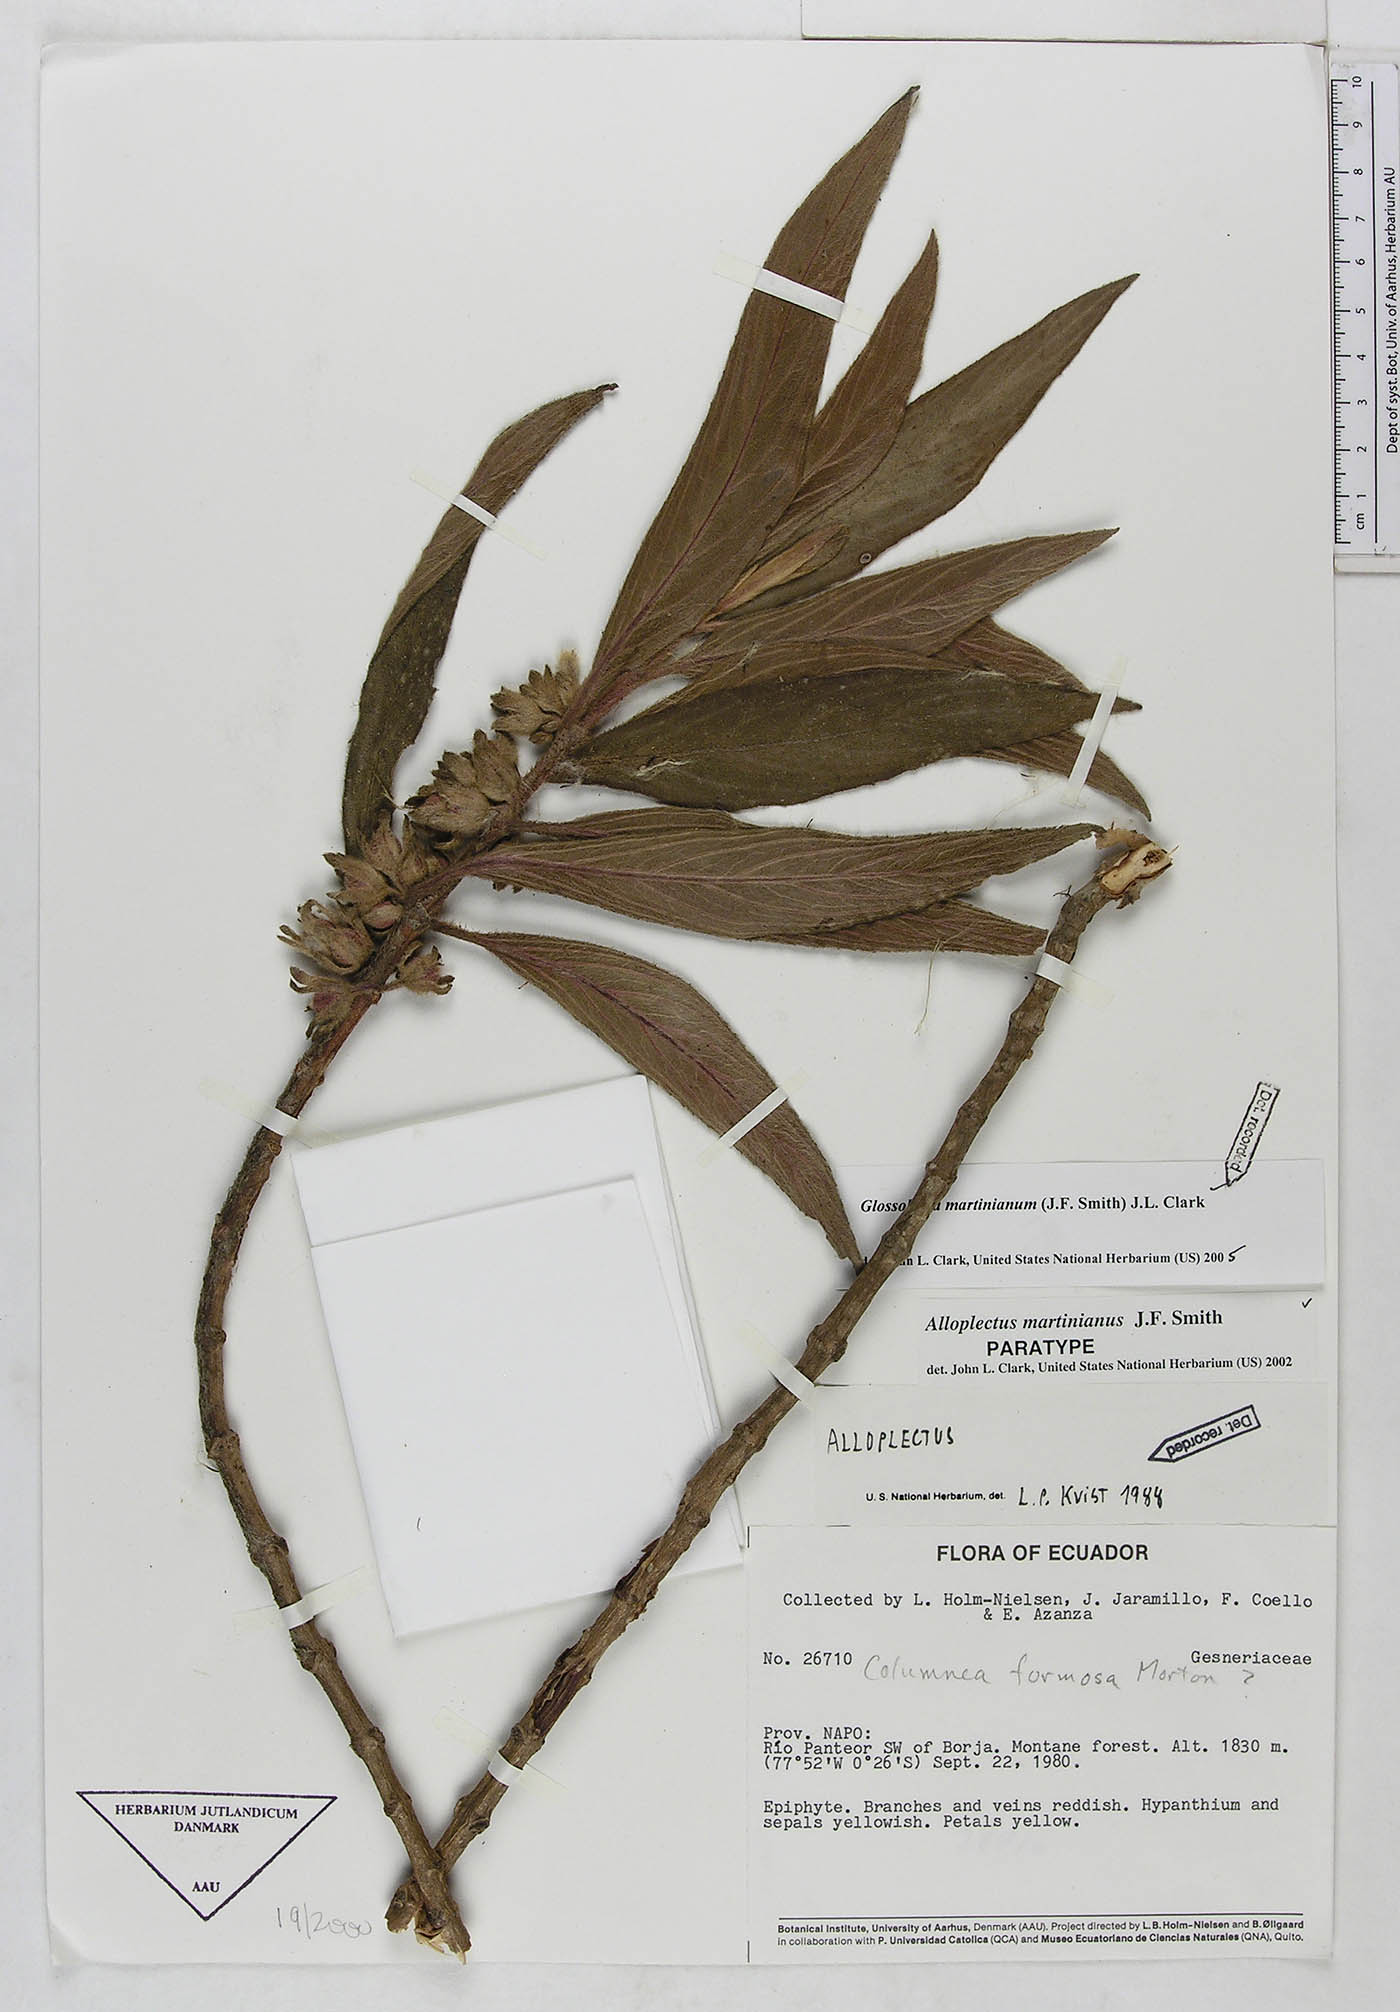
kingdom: Plantae
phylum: Tracheophyta
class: Magnoliopsida
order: Lamiales
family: Gesneriaceae
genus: Glossoloma
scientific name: Glossoloma martinianum
